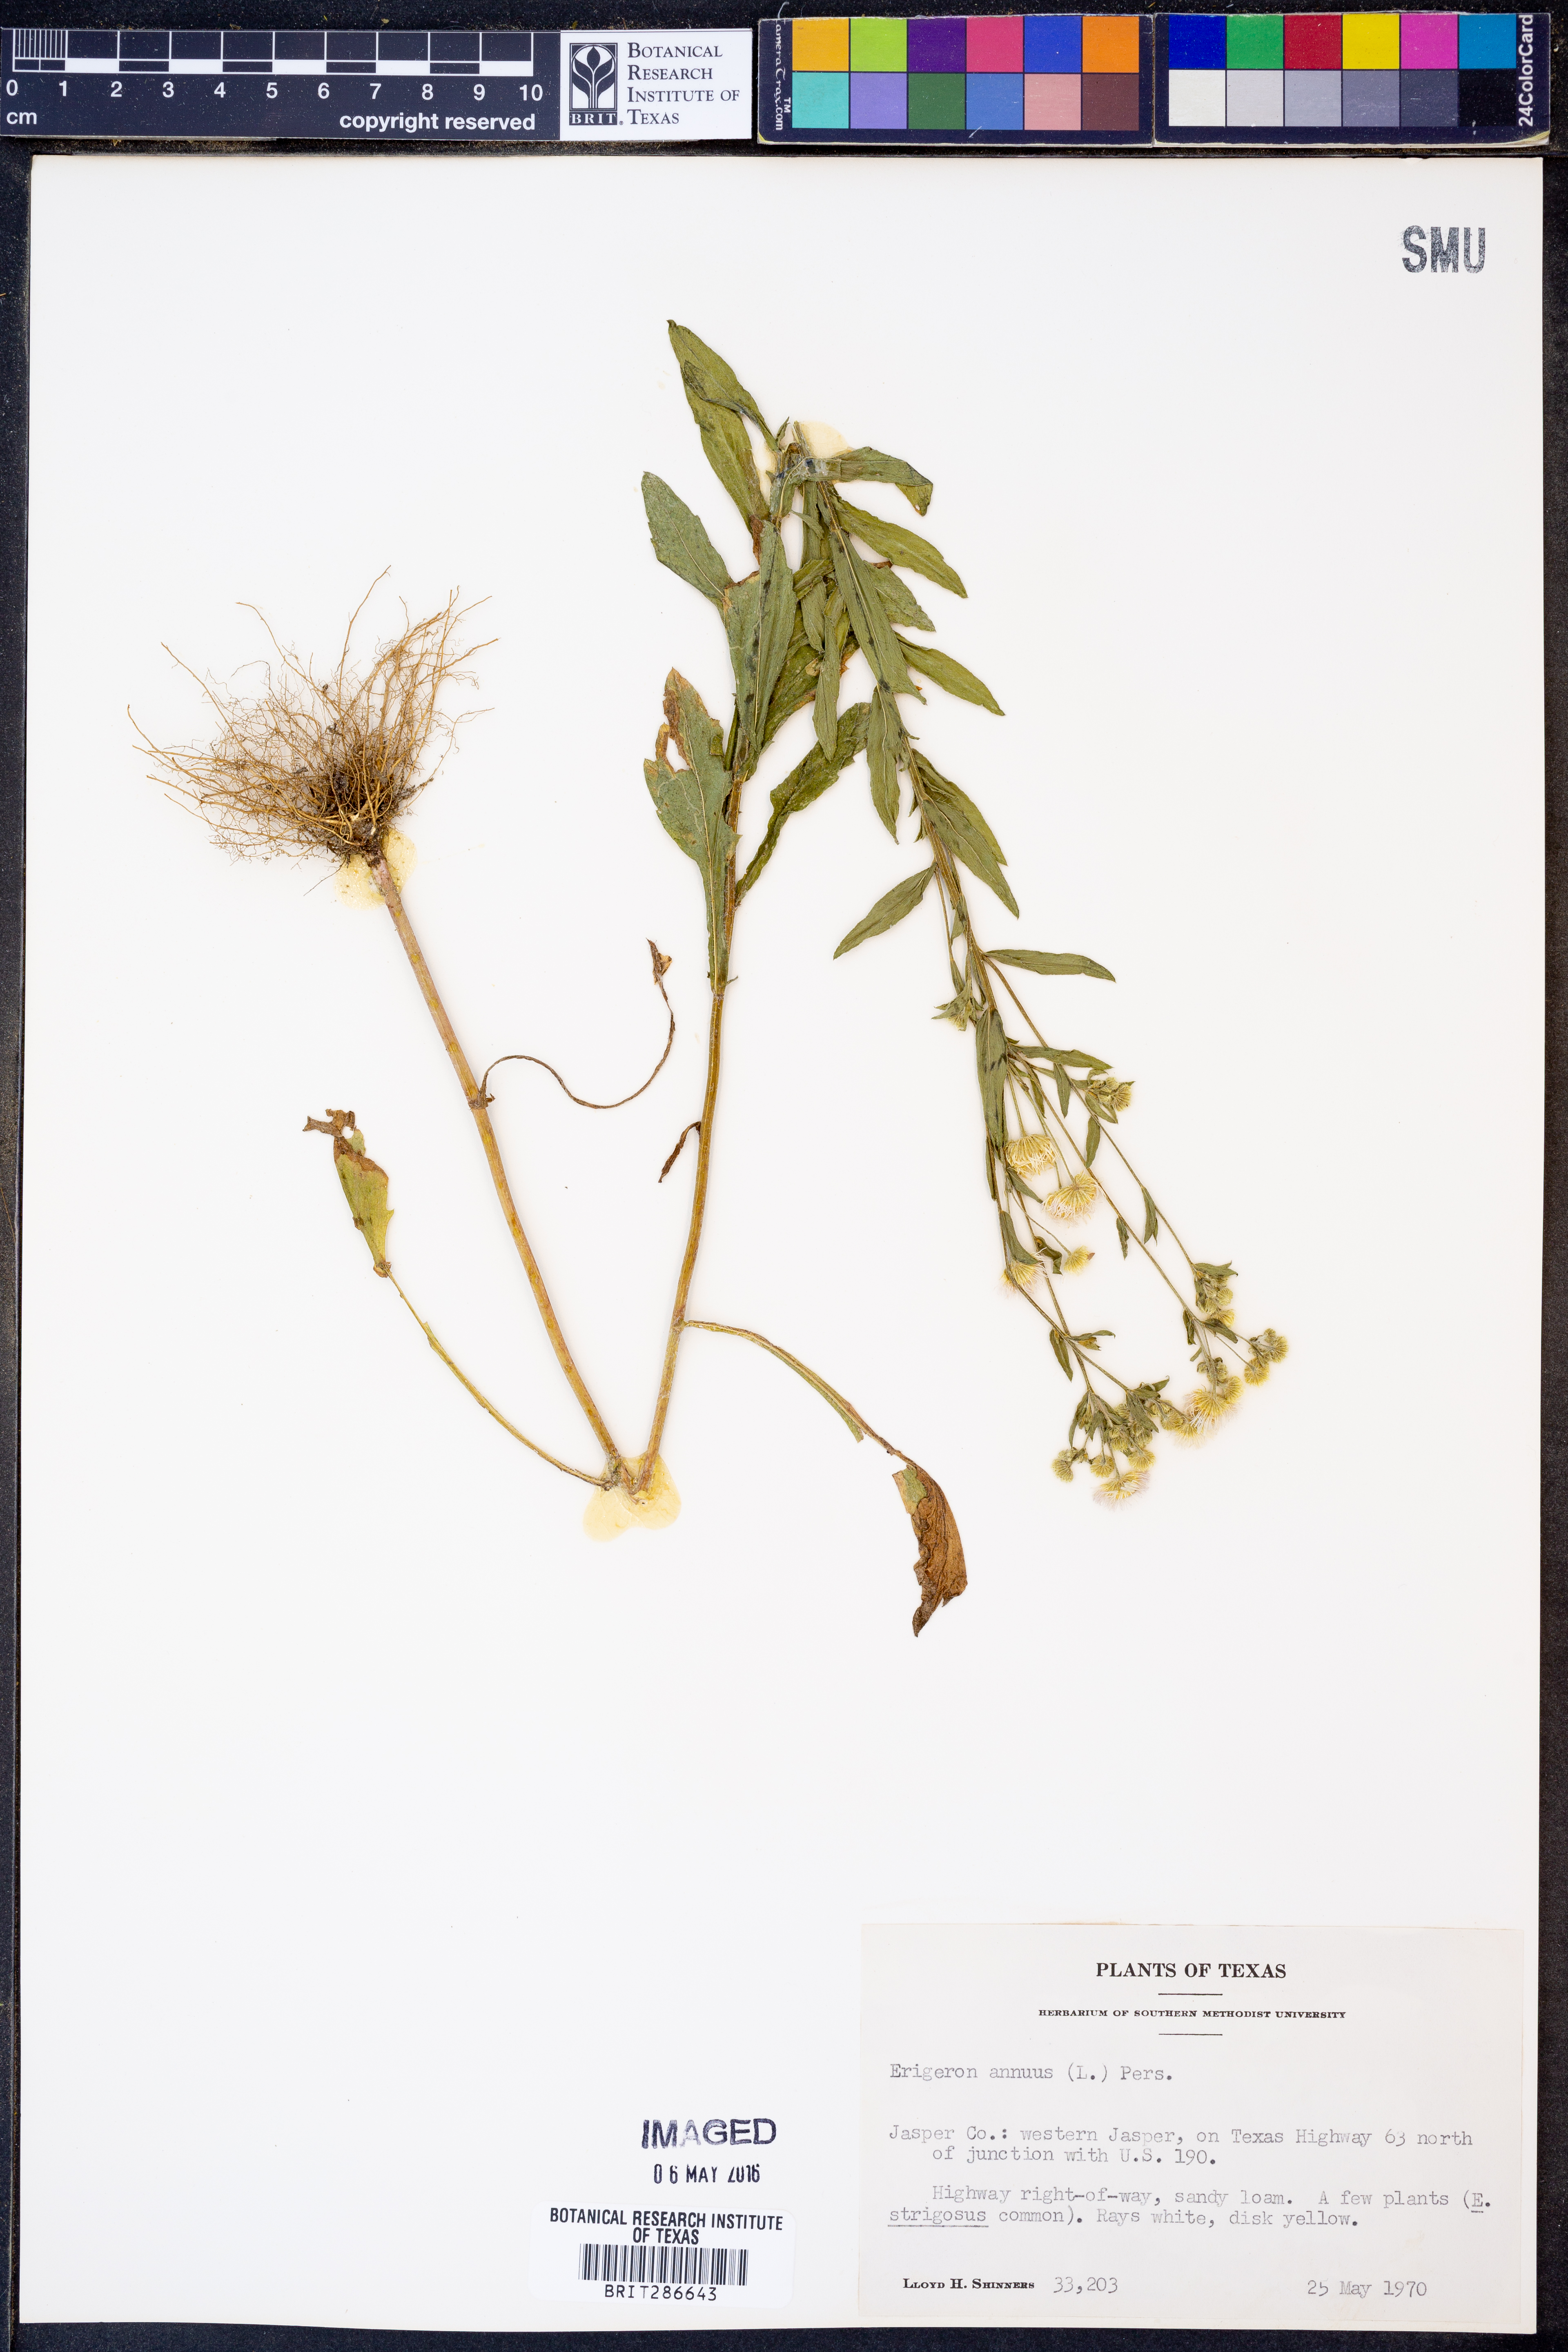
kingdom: Plantae
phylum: Tracheophyta
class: Magnoliopsida
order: Asterales
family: Asteraceae
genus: Erigeron
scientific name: Erigeron annuus
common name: Tall fleabane
